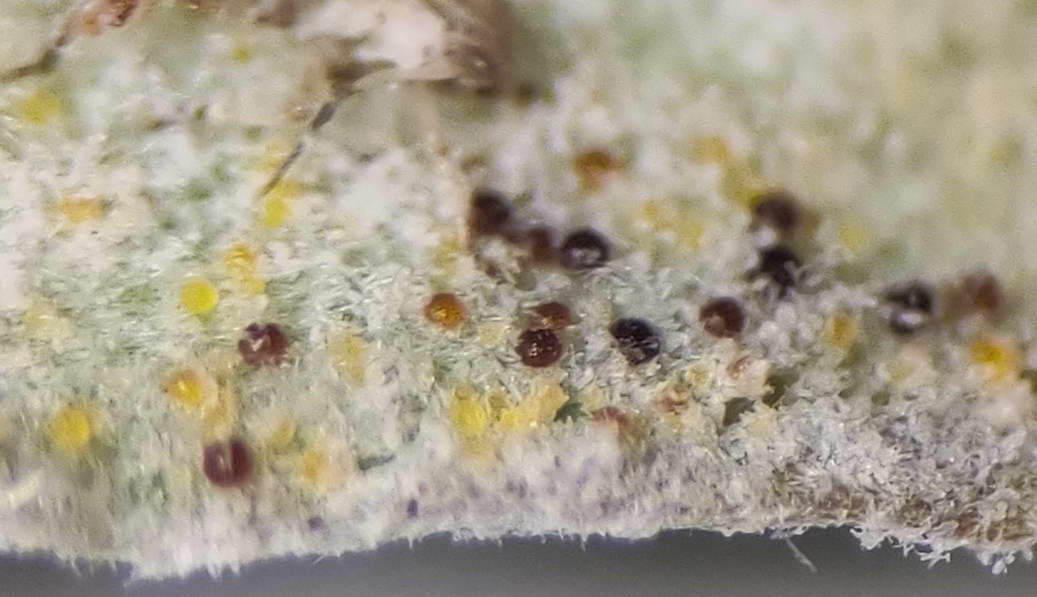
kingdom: Fungi
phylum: Ascomycota
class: Leotiomycetes
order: Helotiales
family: Erysiphaceae
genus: Erysiphe
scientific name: Erysiphe polygoni
